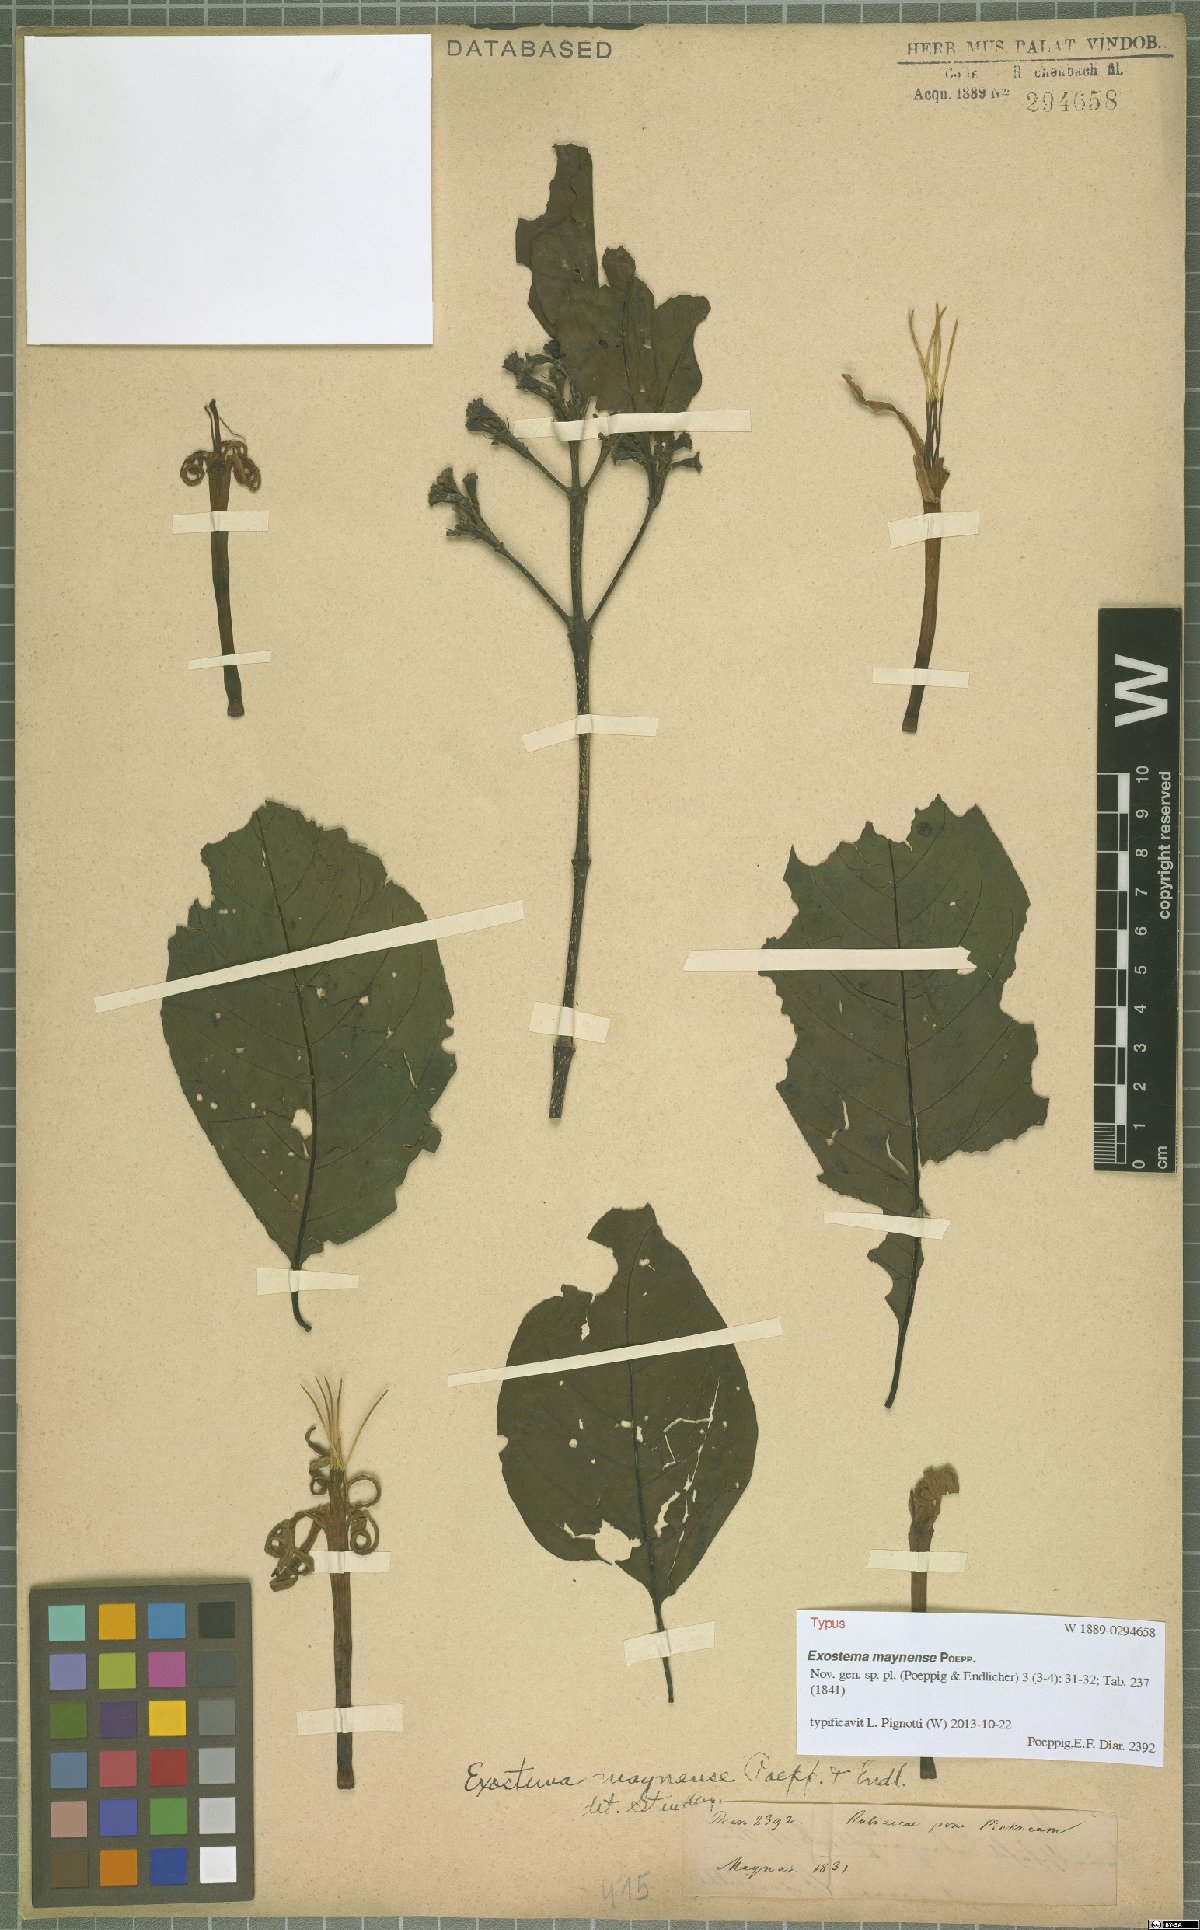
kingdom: Plantae
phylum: Tracheophyta
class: Magnoliopsida
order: Gentianales
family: Rubiaceae
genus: Adolphoduckea
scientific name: Adolphoduckea maynensis
